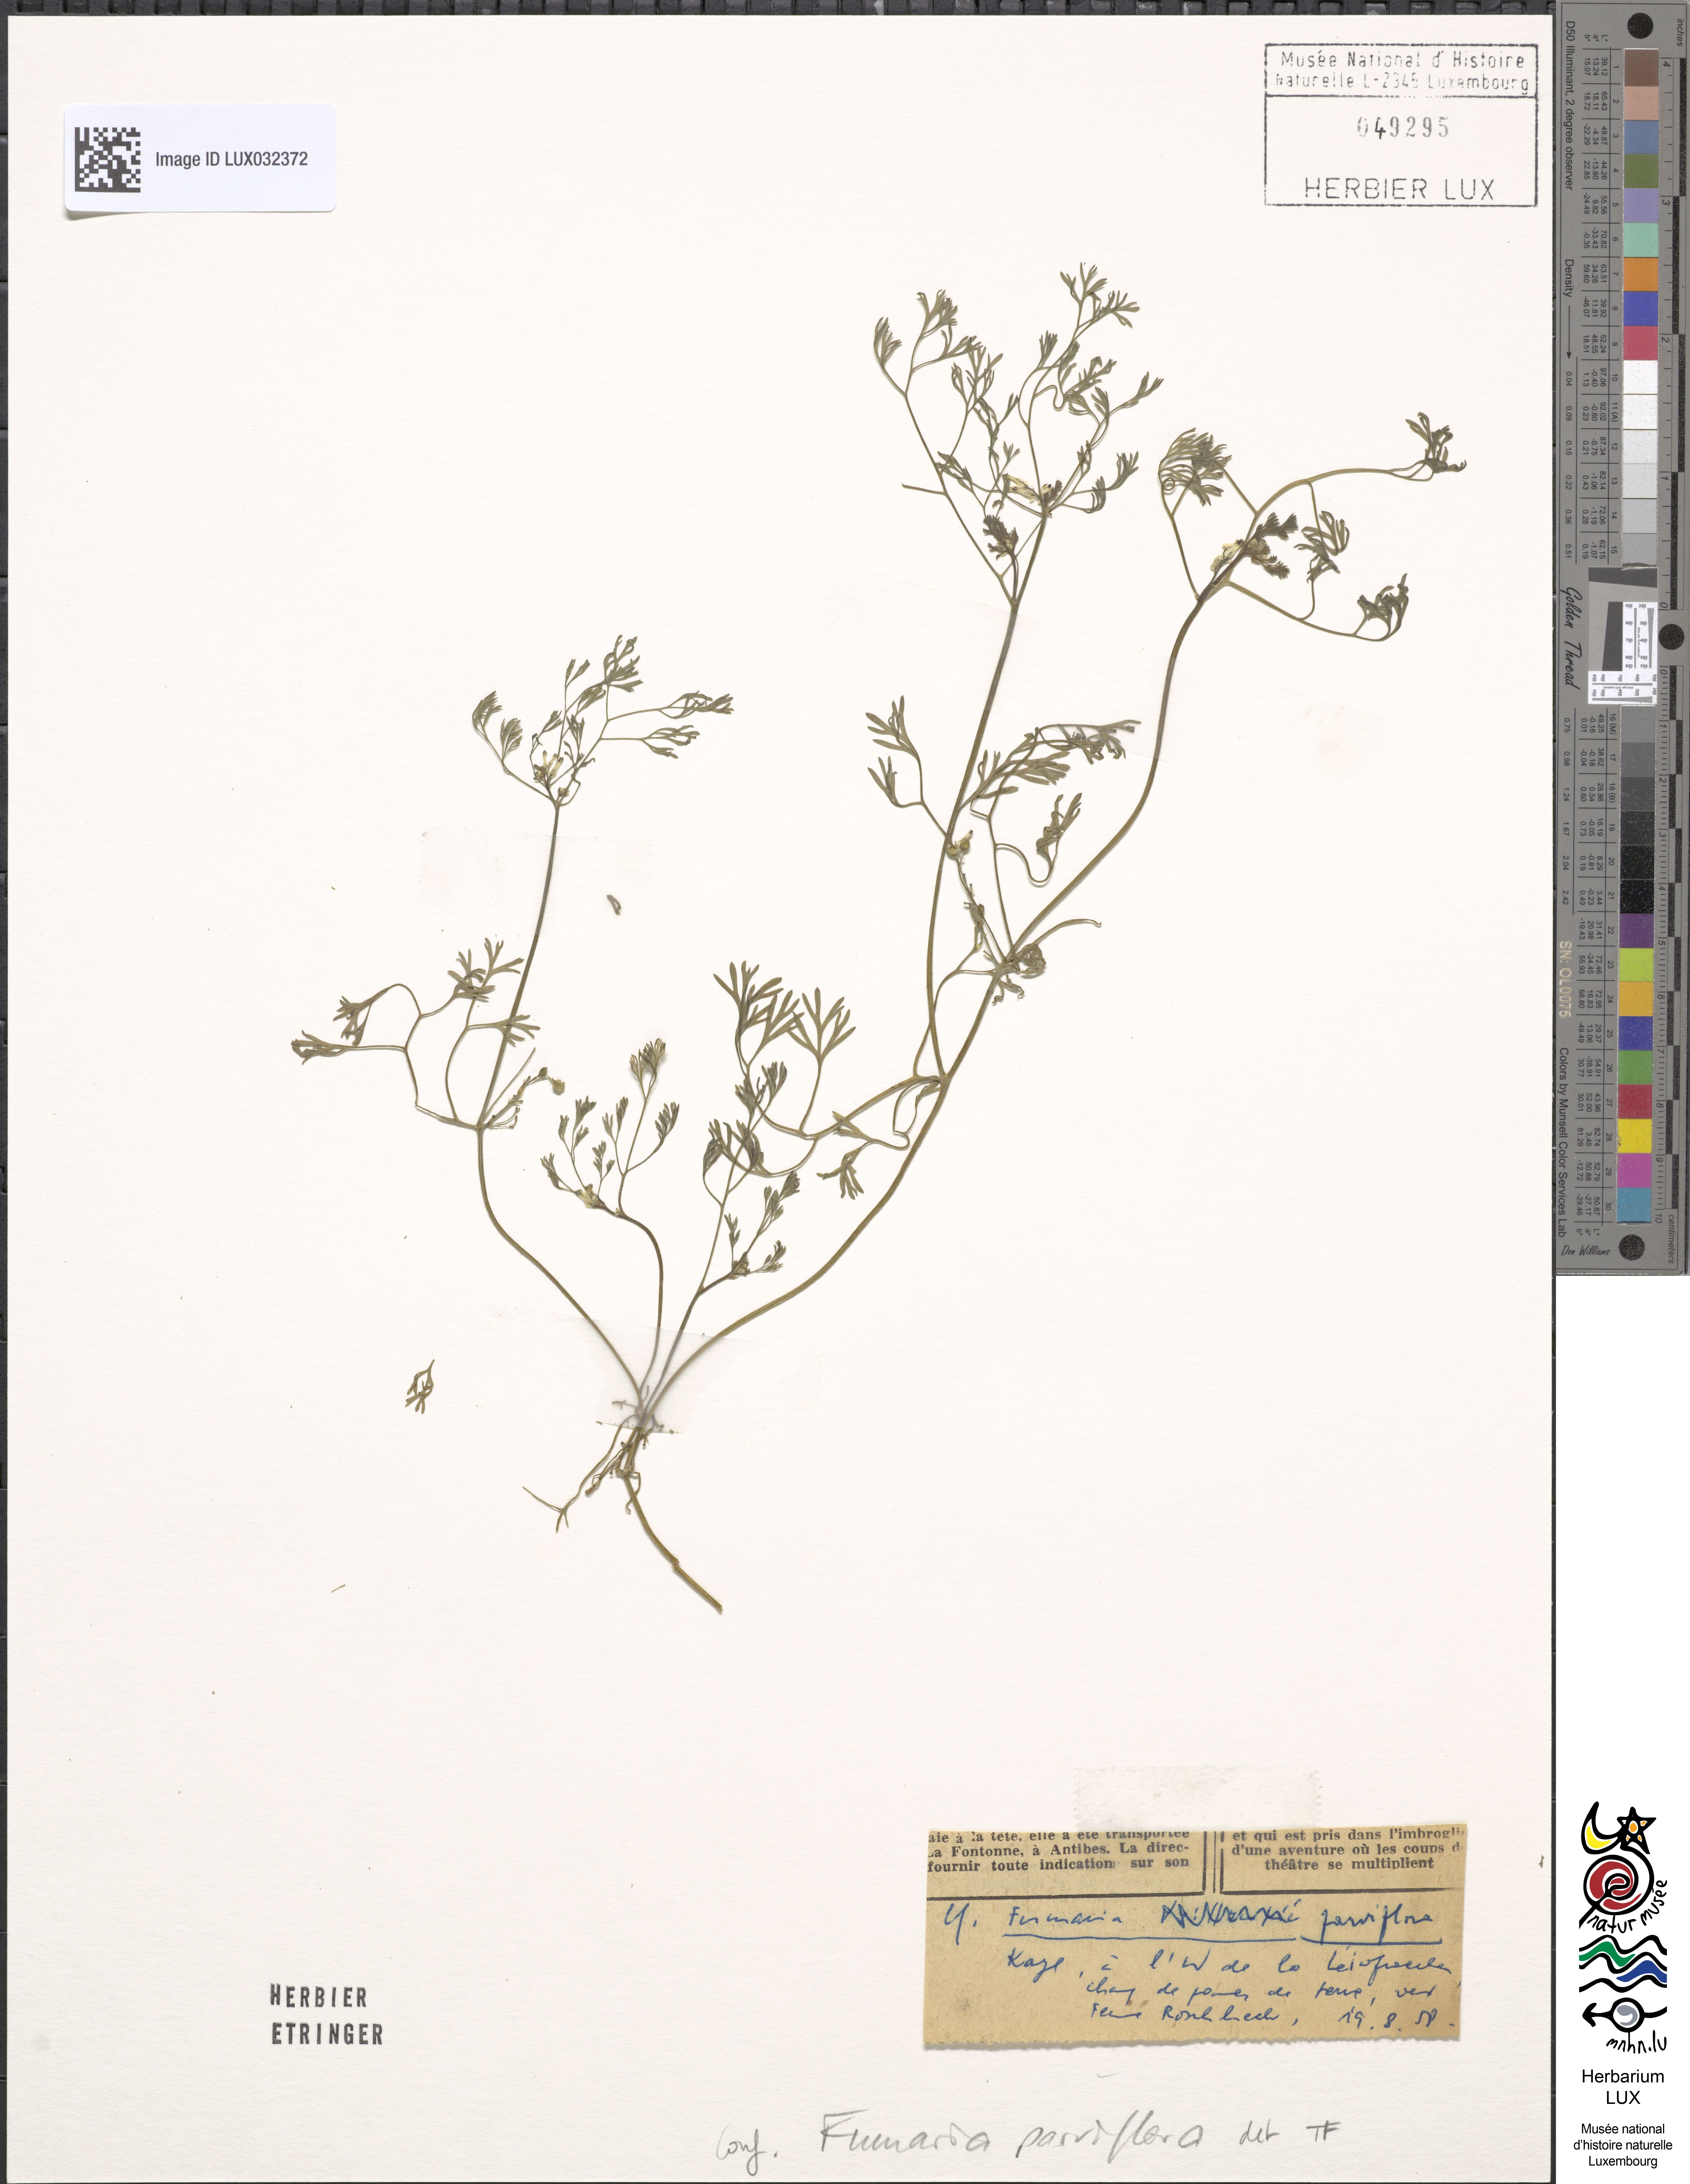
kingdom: Plantae
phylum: Tracheophyta
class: Magnoliopsida
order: Ranunculales
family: Papaveraceae
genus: Fumaria
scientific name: Fumaria parviflora
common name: Fine-leaved fumitory
